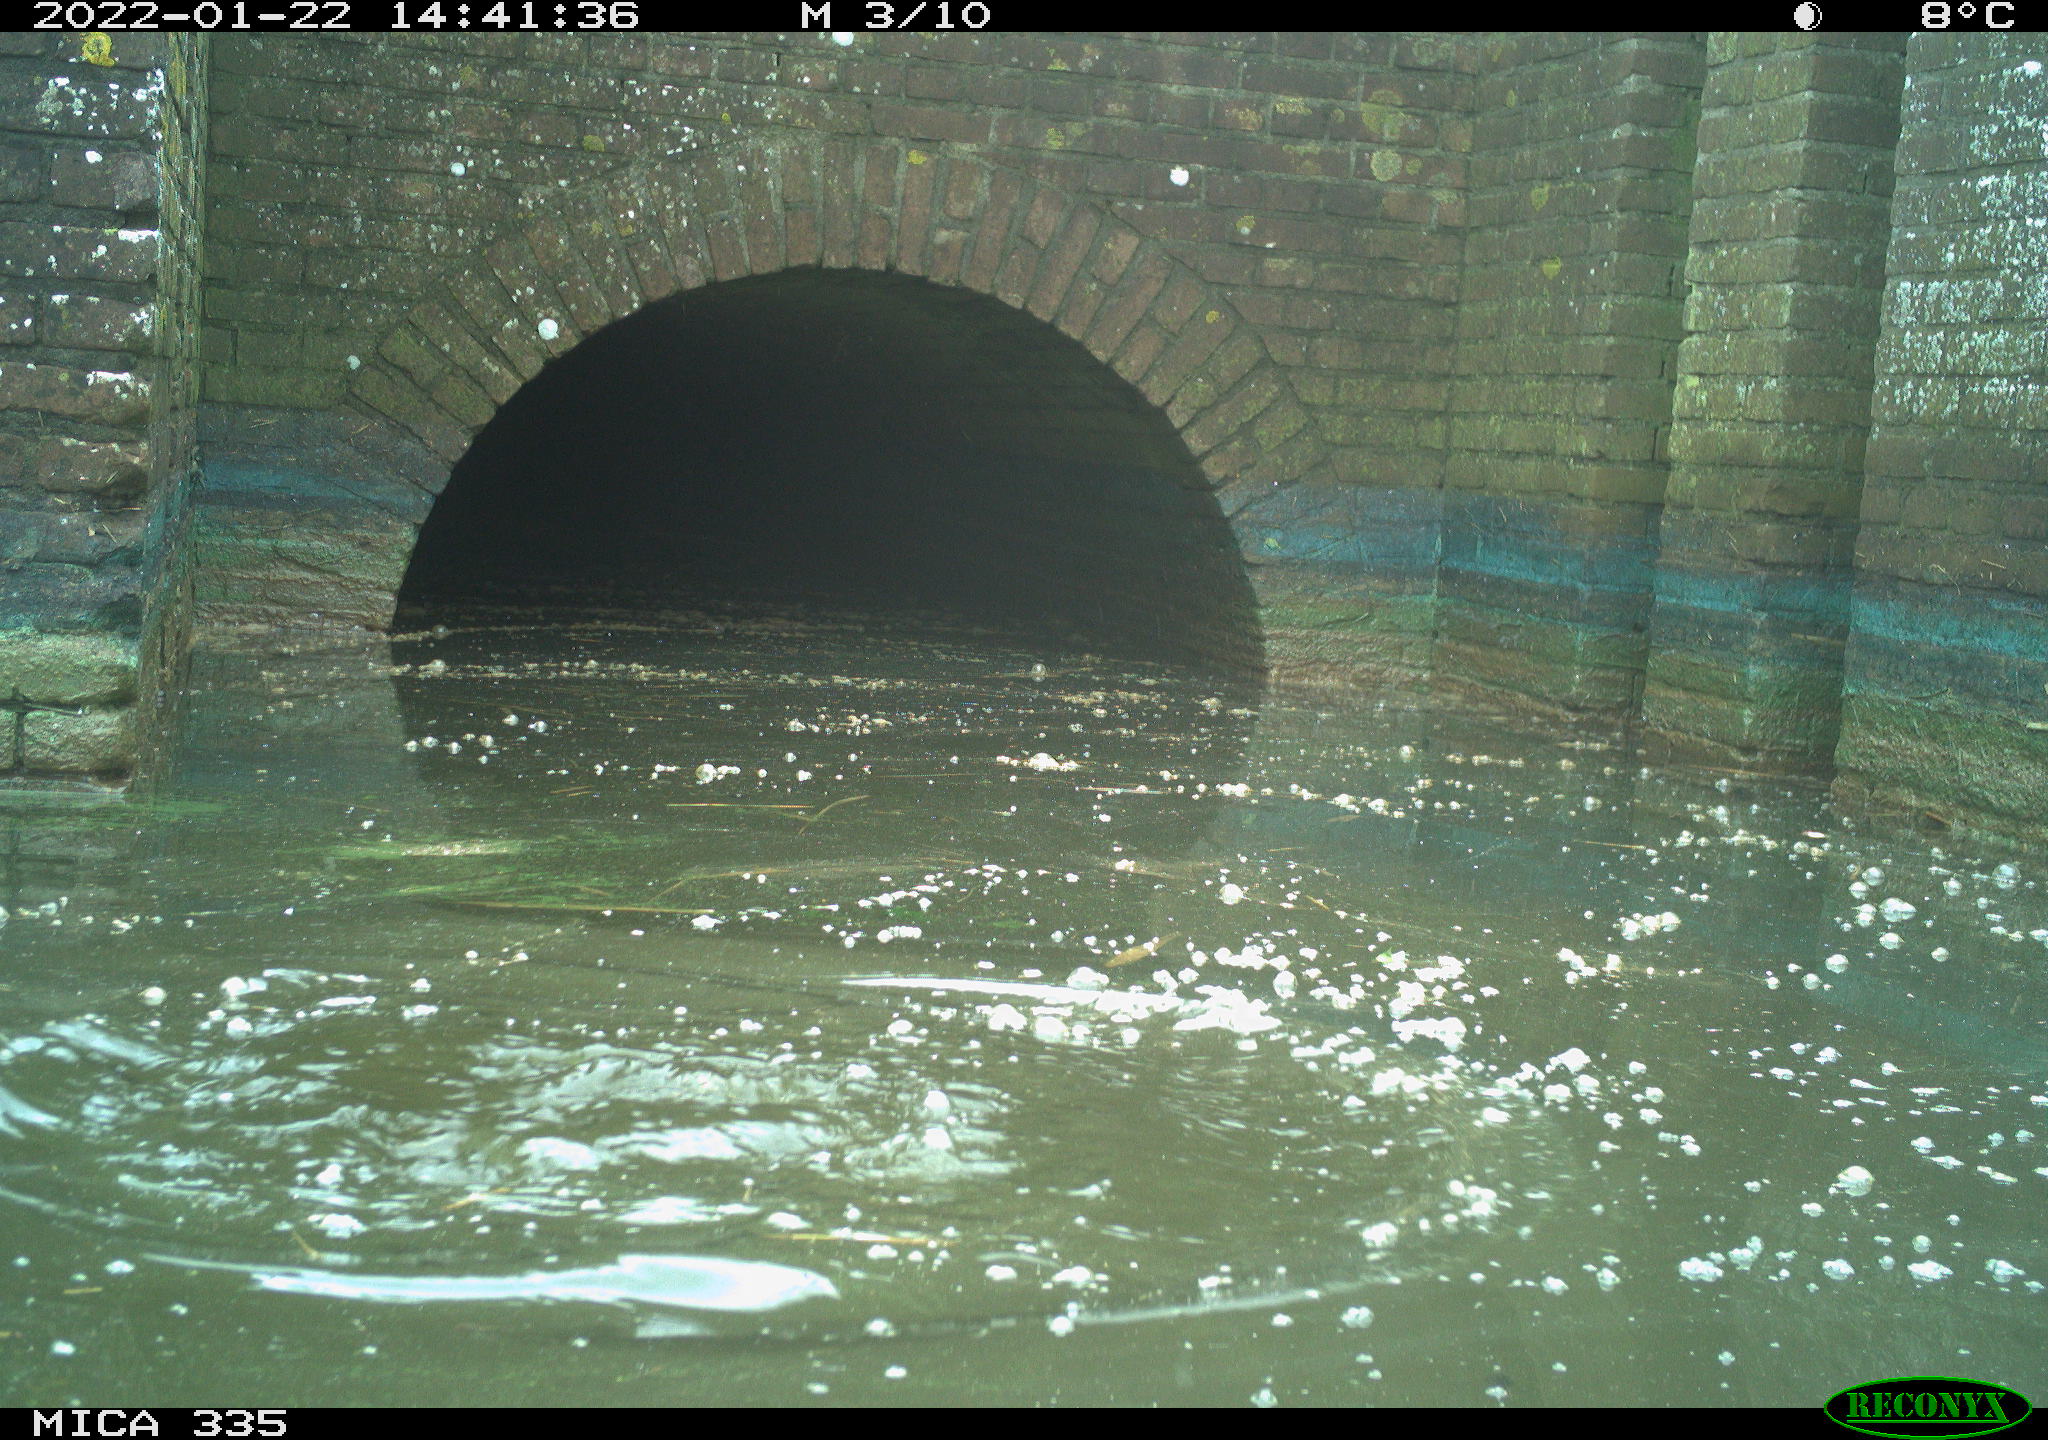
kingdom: Animalia
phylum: Chordata
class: Aves
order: Suliformes
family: Phalacrocoracidae
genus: Phalacrocorax
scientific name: Phalacrocorax carbo
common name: Great cormorant
